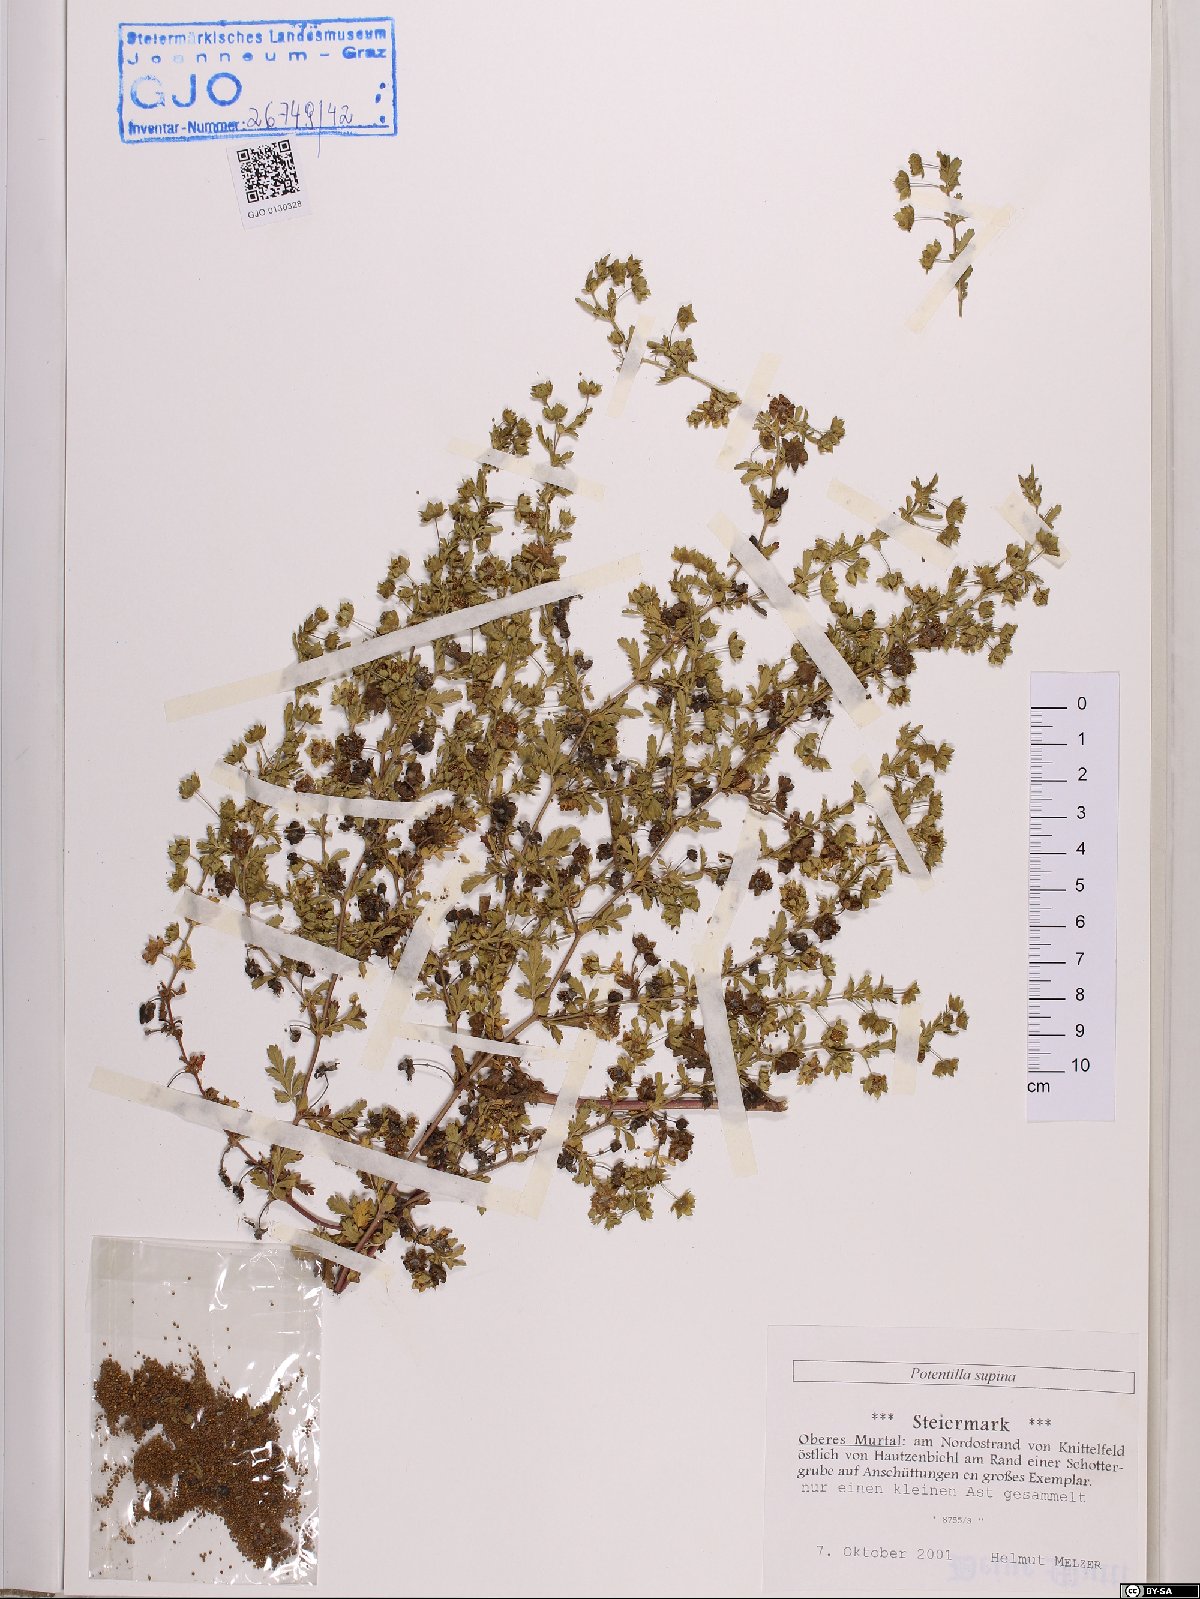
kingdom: Plantae
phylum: Tracheophyta
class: Magnoliopsida
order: Rosales
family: Rosaceae
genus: Potentilla
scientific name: Potentilla supina
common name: Prostrate cinquefoil
